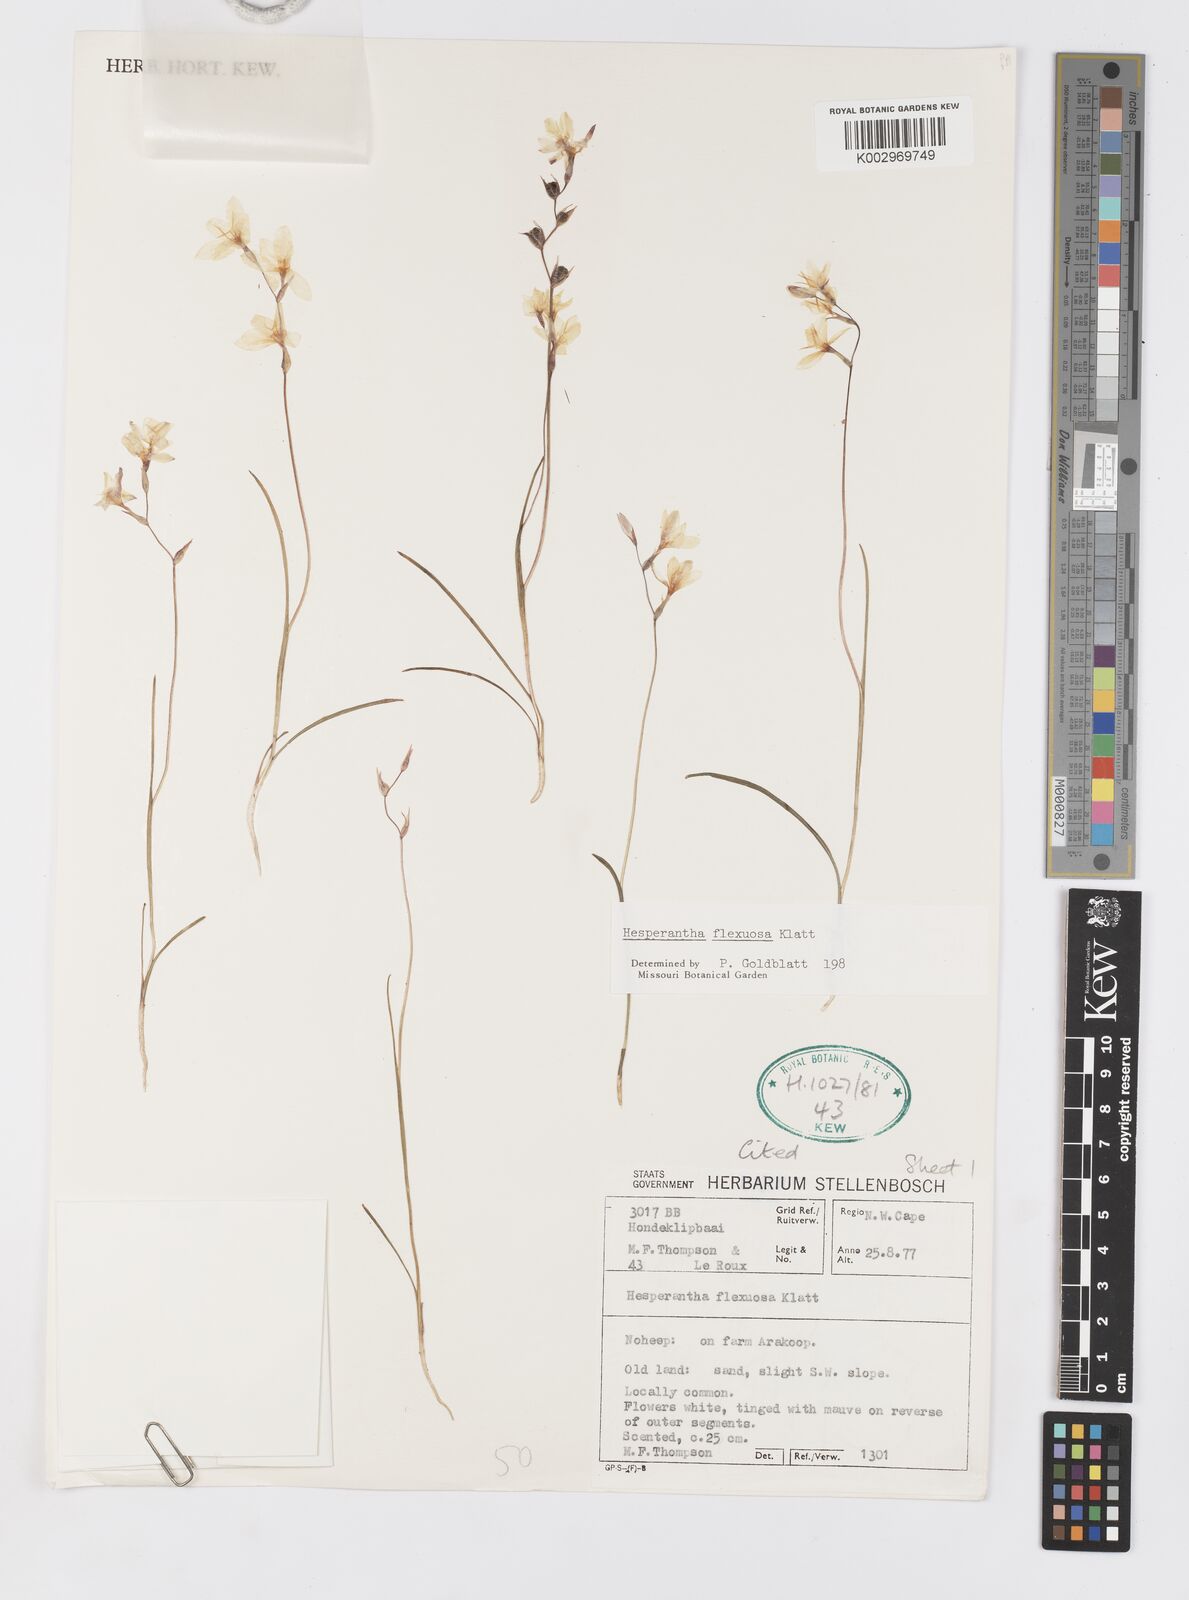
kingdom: Plantae
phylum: Tracheophyta
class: Liliopsida
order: Asparagales
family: Iridaceae
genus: Hesperantha
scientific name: Hesperantha flexuosa
